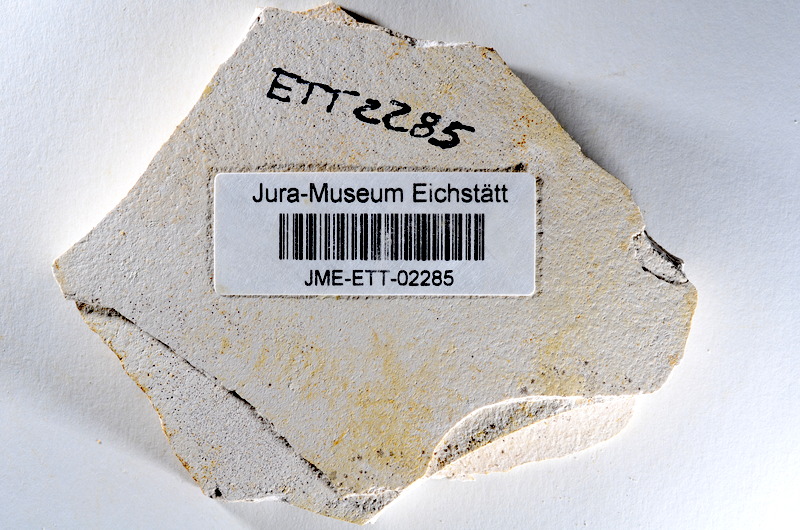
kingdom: Animalia
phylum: Chordata
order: Salmoniformes
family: Orthogonikleithridae
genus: Orthogonikleithrus
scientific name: Orthogonikleithrus hoelli
